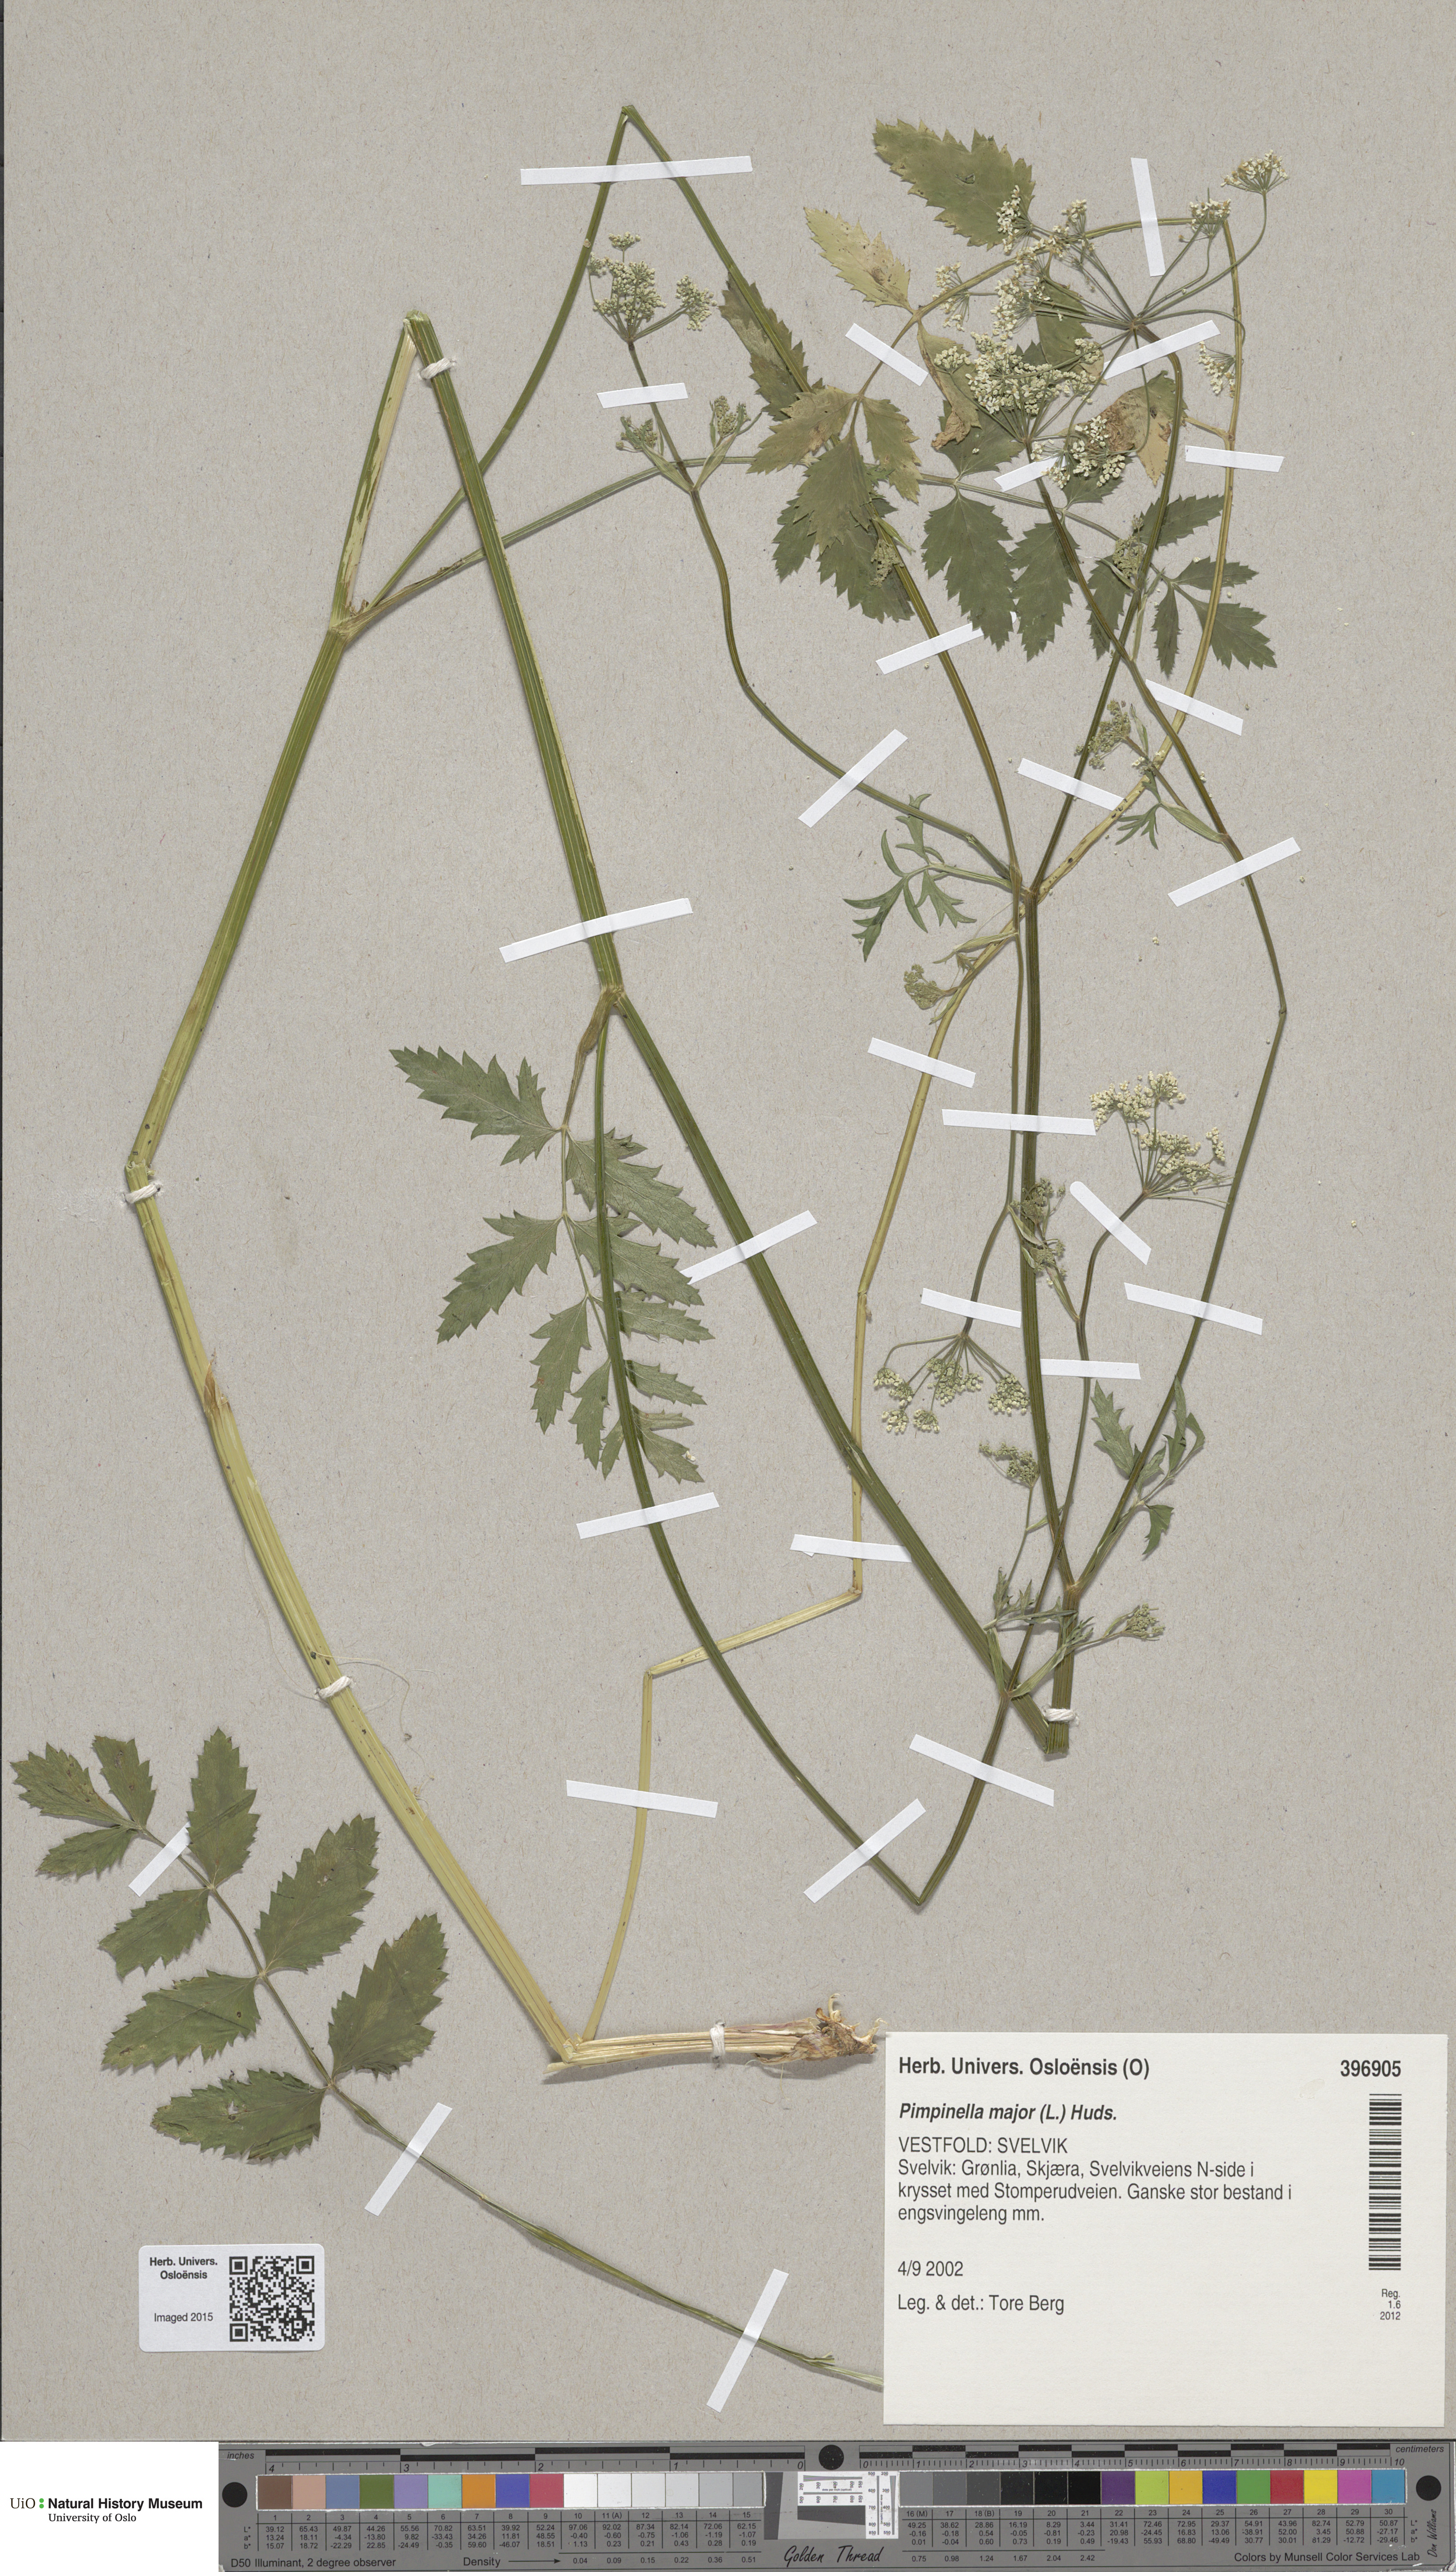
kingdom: Plantae
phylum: Tracheophyta
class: Magnoliopsida
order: Apiales
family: Apiaceae
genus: Pimpinella
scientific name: Pimpinella major
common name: Greater burnet-saxifrage
